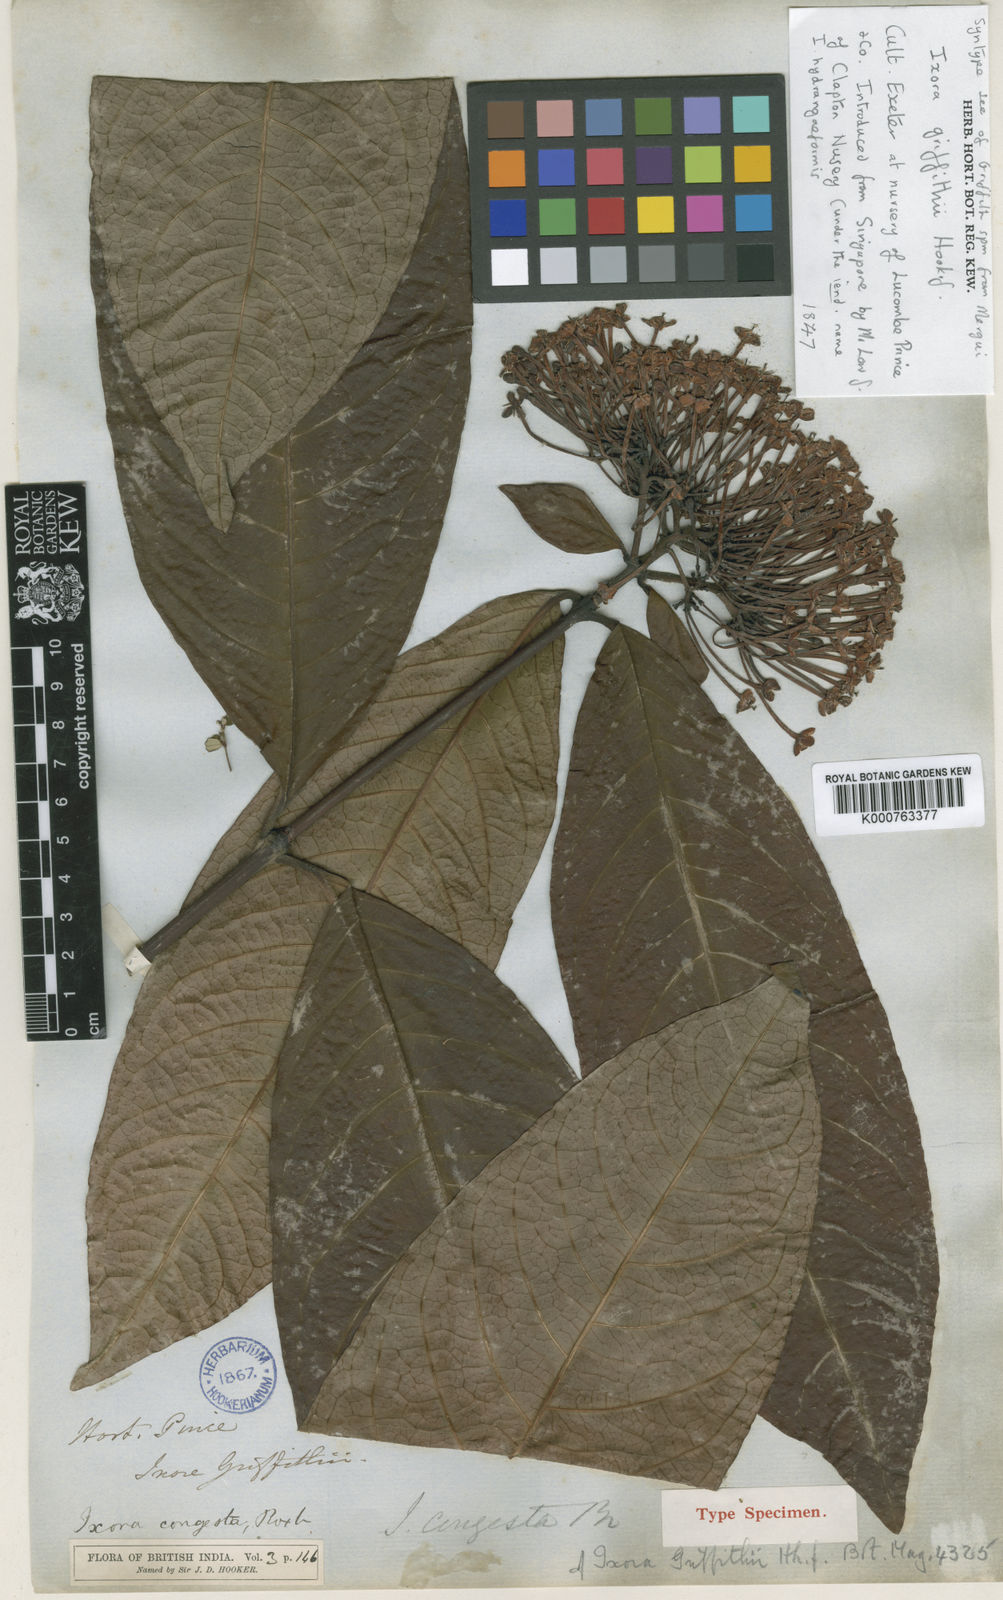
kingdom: Plantae
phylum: Tracheophyta
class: Magnoliopsida
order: Gentianales
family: Rubiaceae
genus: Ixora
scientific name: Ixora congesta
